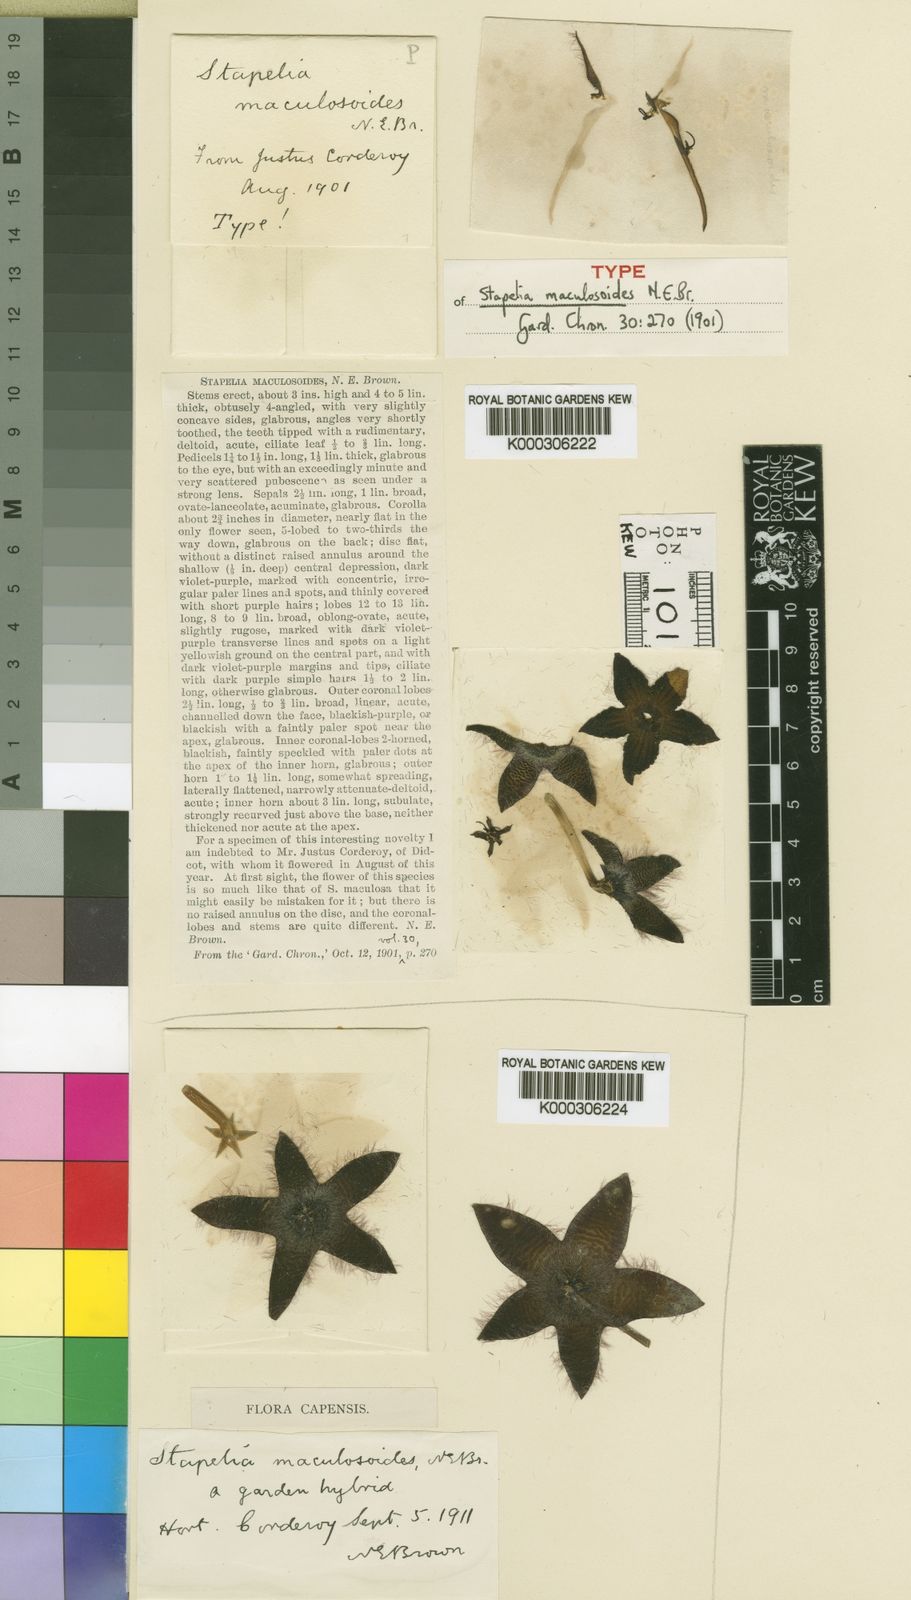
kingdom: Plantae
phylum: Tracheophyta
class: Magnoliopsida
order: Gentianales
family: Apocynaceae
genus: Stapelia
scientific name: Stapelia maculosoides
